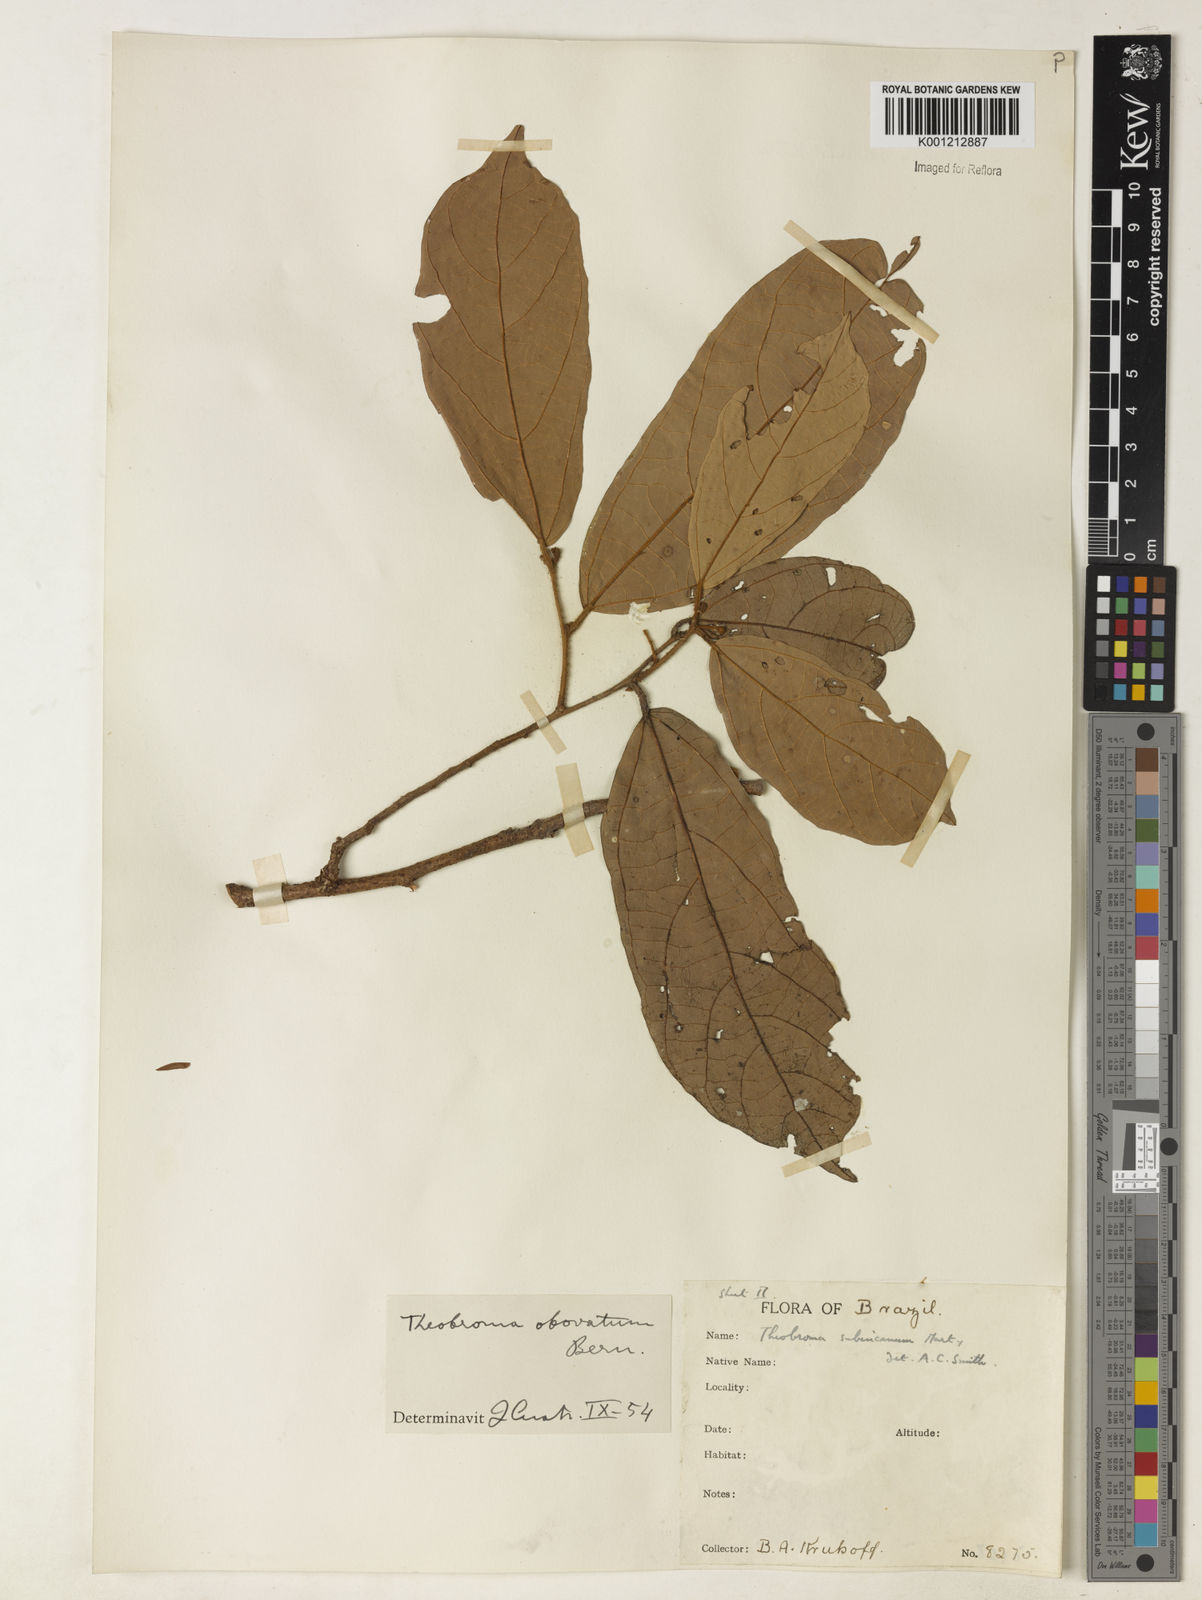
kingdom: Plantae
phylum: Tracheophyta
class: Magnoliopsida
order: Malvales
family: Malvaceae
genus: Theobroma
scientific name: Theobroma obovatum
